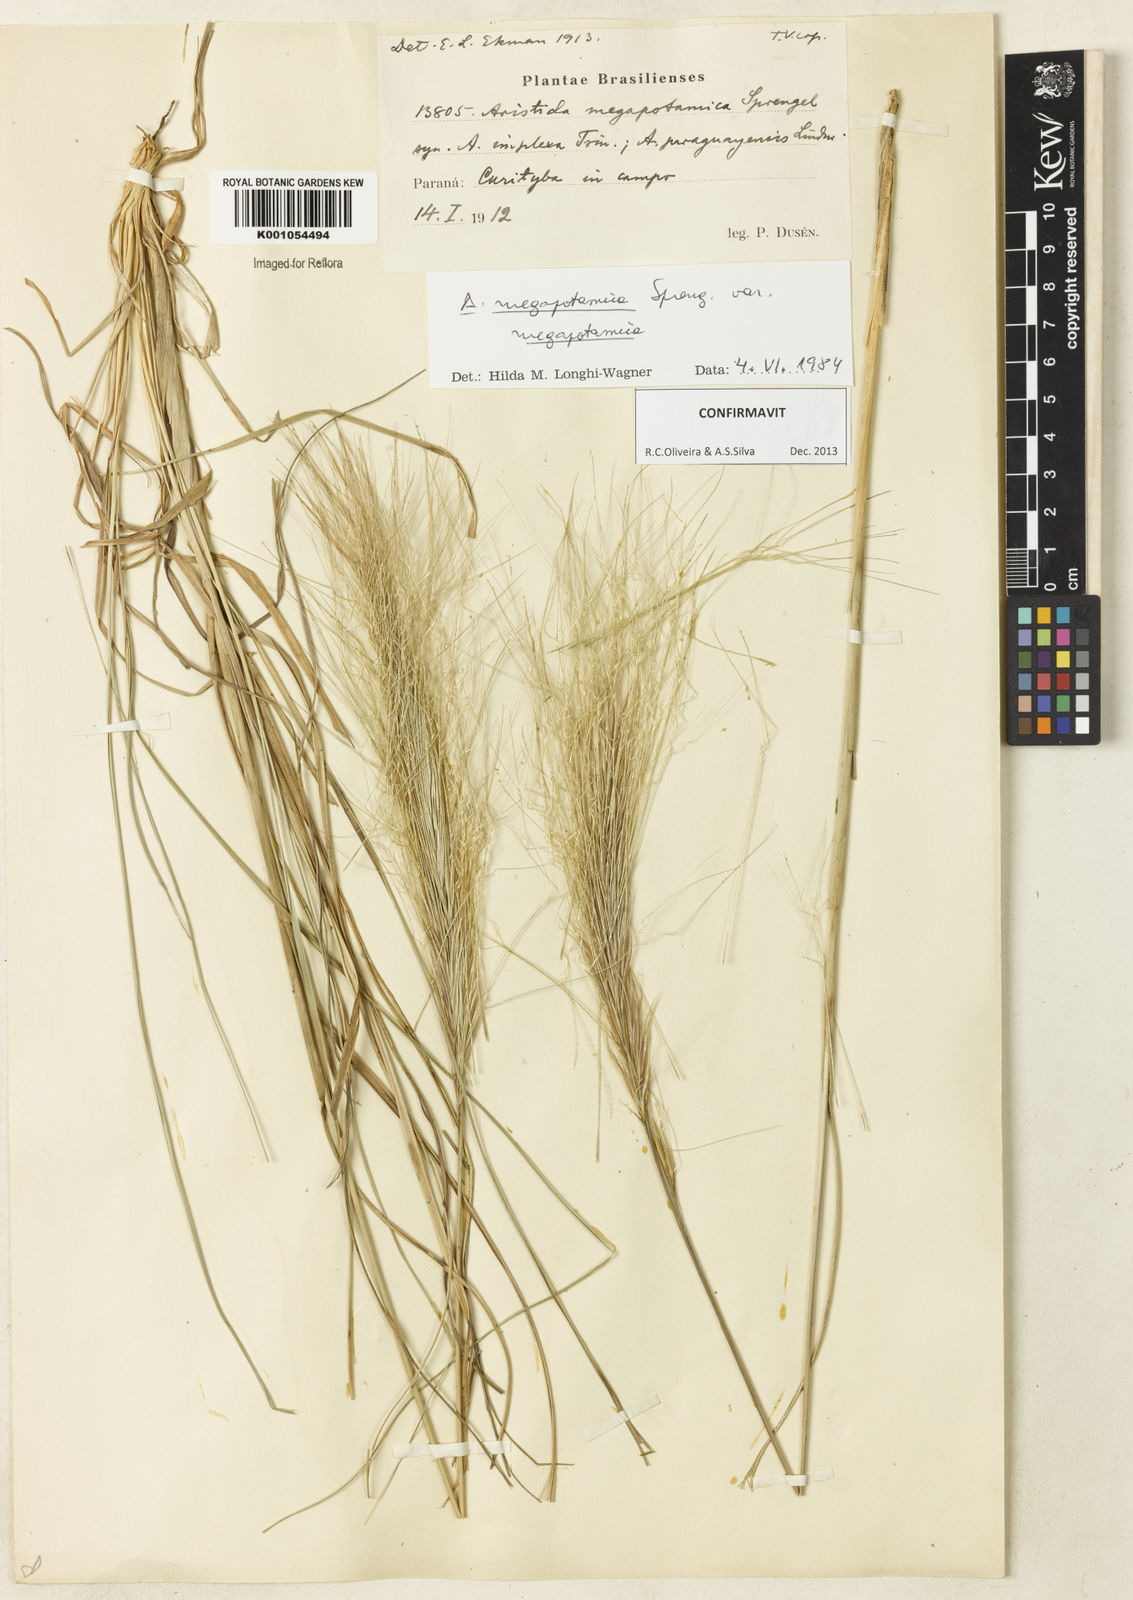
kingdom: Plantae
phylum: Tracheophyta
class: Liliopsida
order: Poales
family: Poaceae
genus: Aristida
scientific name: Aristida megapotamica
